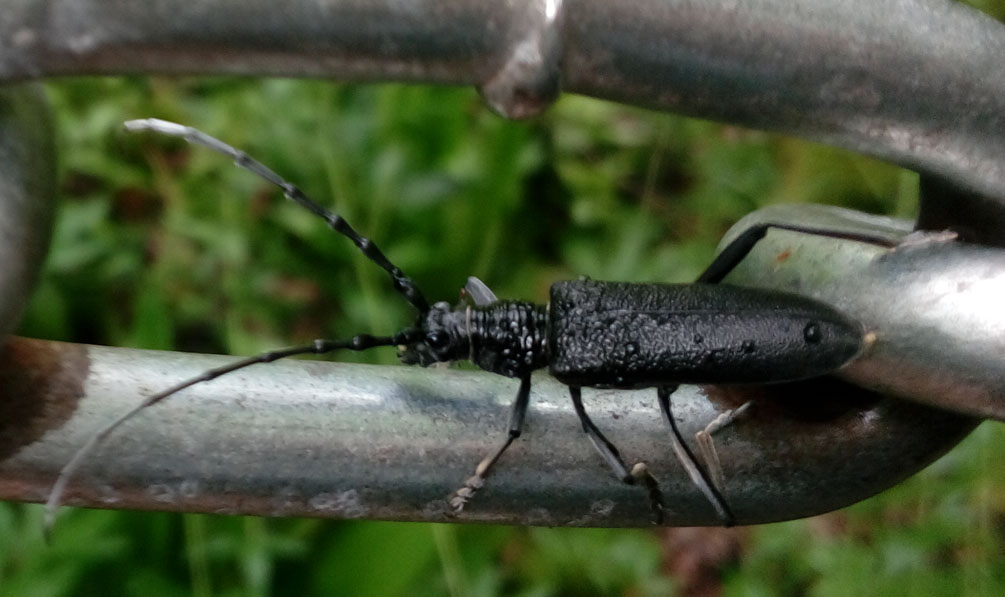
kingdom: Animalia
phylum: Arthropoda
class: Insecta
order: Coleoptera
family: Cerambycidae
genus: Aromia
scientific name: Aromia moschata
